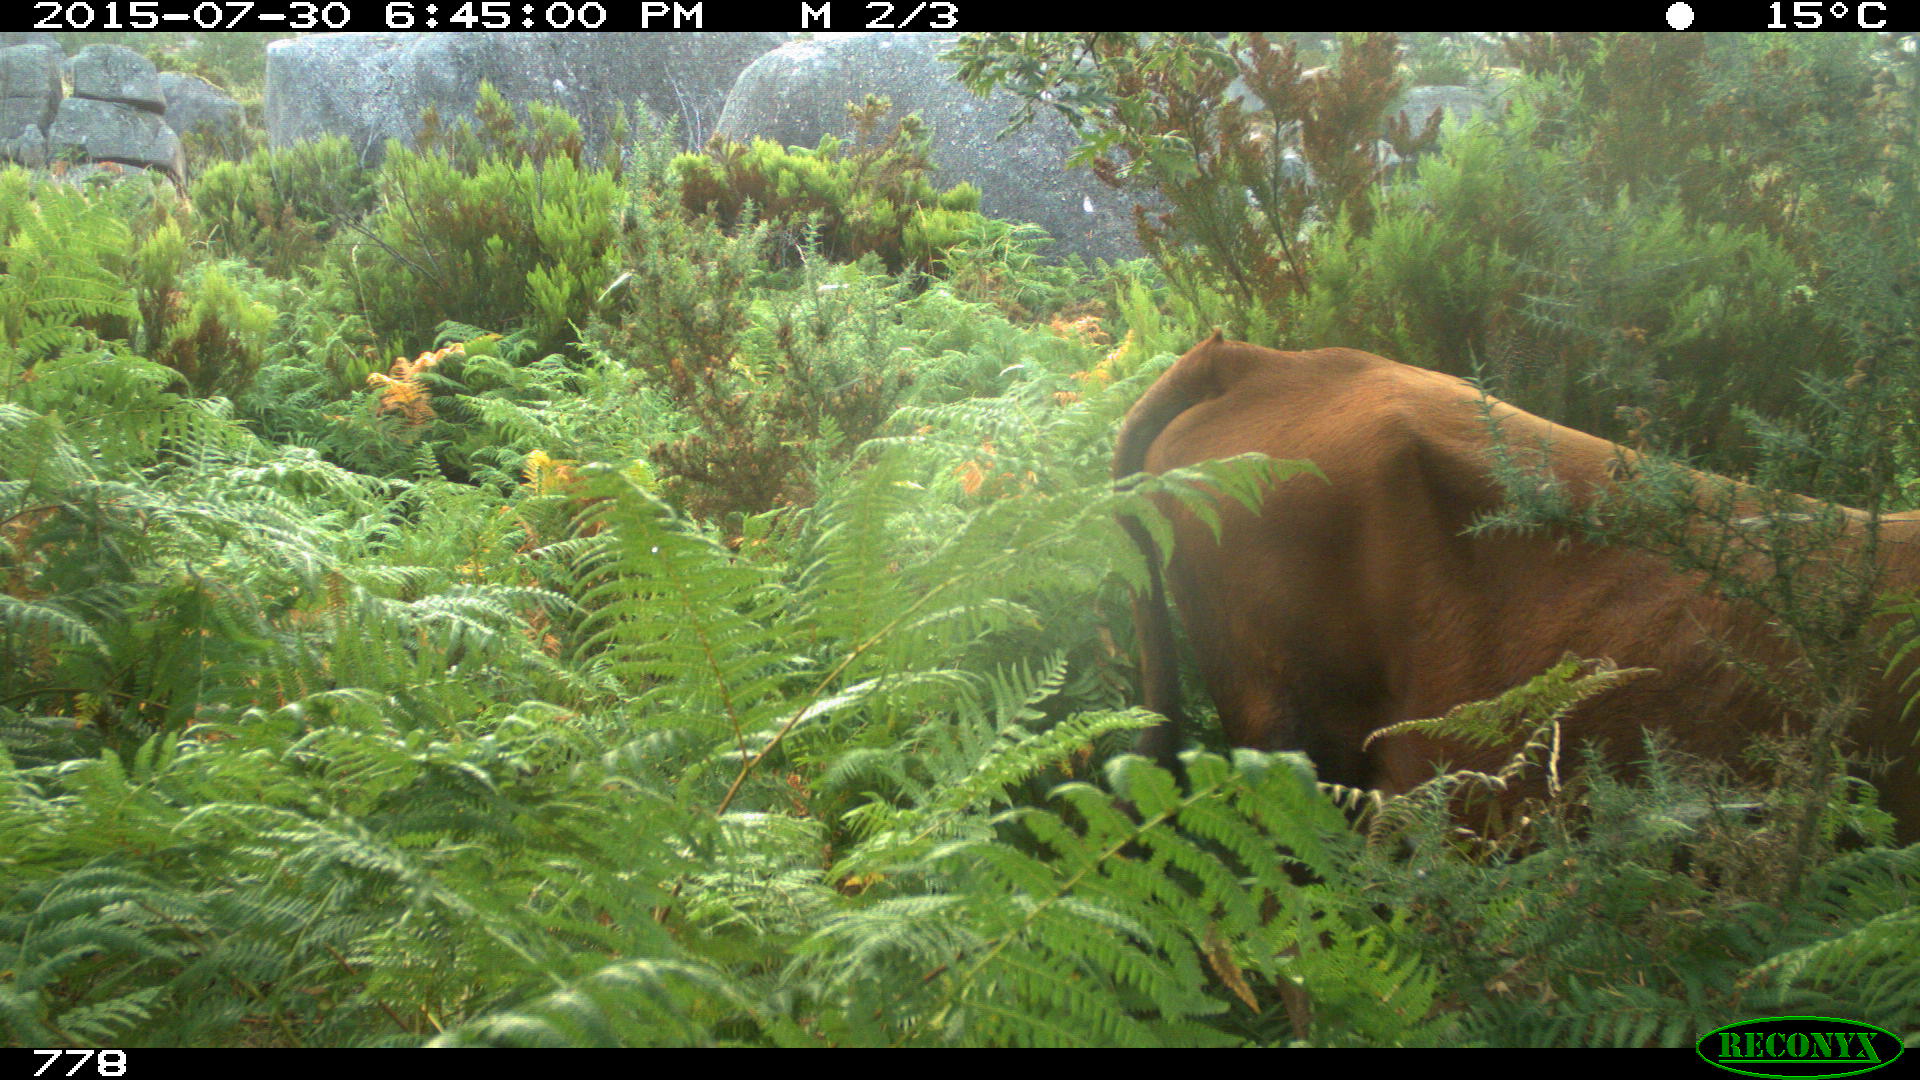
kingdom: Animalia
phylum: Chordata
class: Mammalia
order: Artiodactyla
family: Bovidae
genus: Bos
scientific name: Bos taurus
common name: Domesticated cattle
